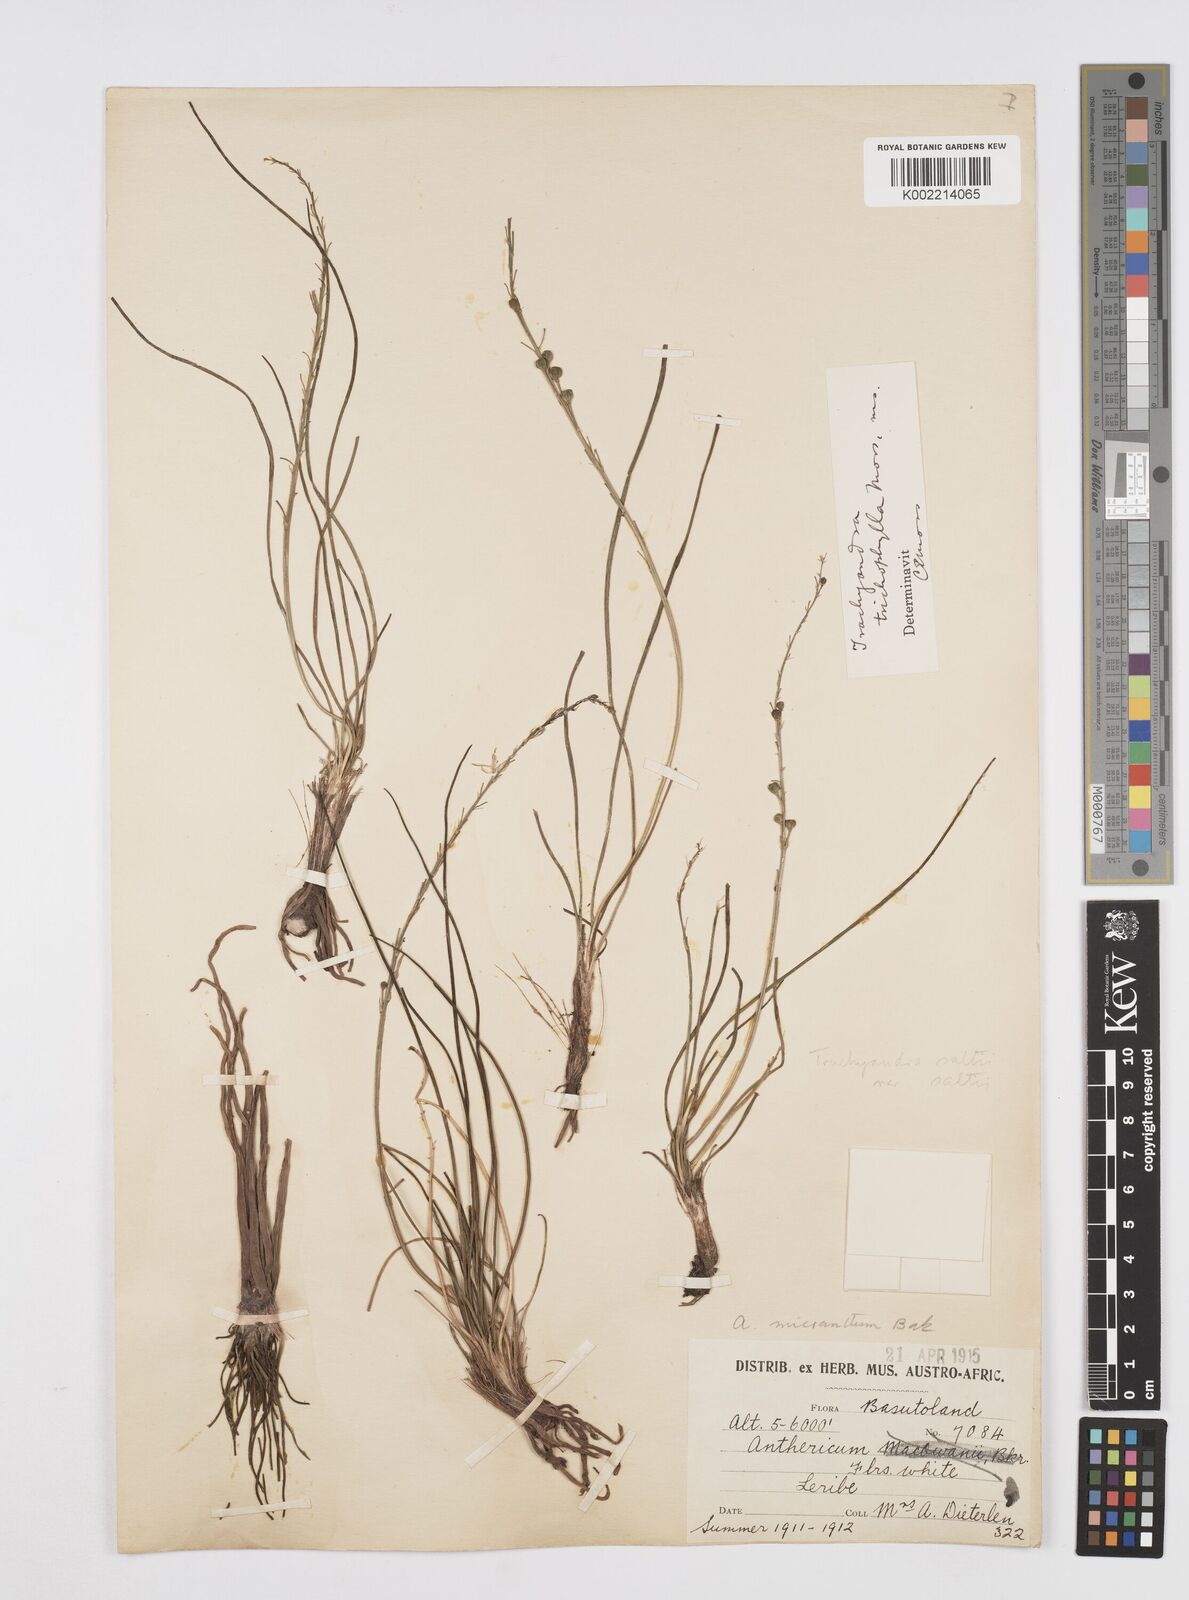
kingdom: Plantae
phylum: Tracheophyta
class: Liliopsida
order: Asparagales
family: Asphodelaceae
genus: Trachyandra
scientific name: Trachyandra
